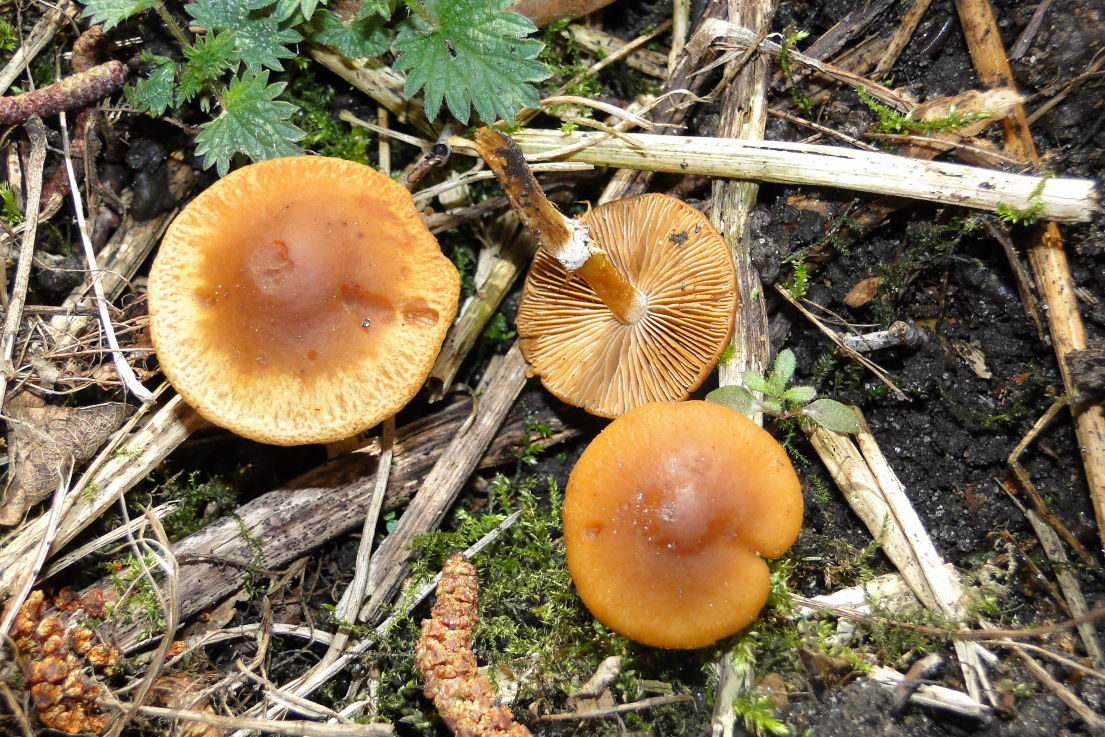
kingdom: Fungi
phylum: Basidiomycota
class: Agaricomycetes
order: Agaricales
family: Bolbitiaceae
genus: Conocybe
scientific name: Conocybe aporos
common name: tidlig dansehat
